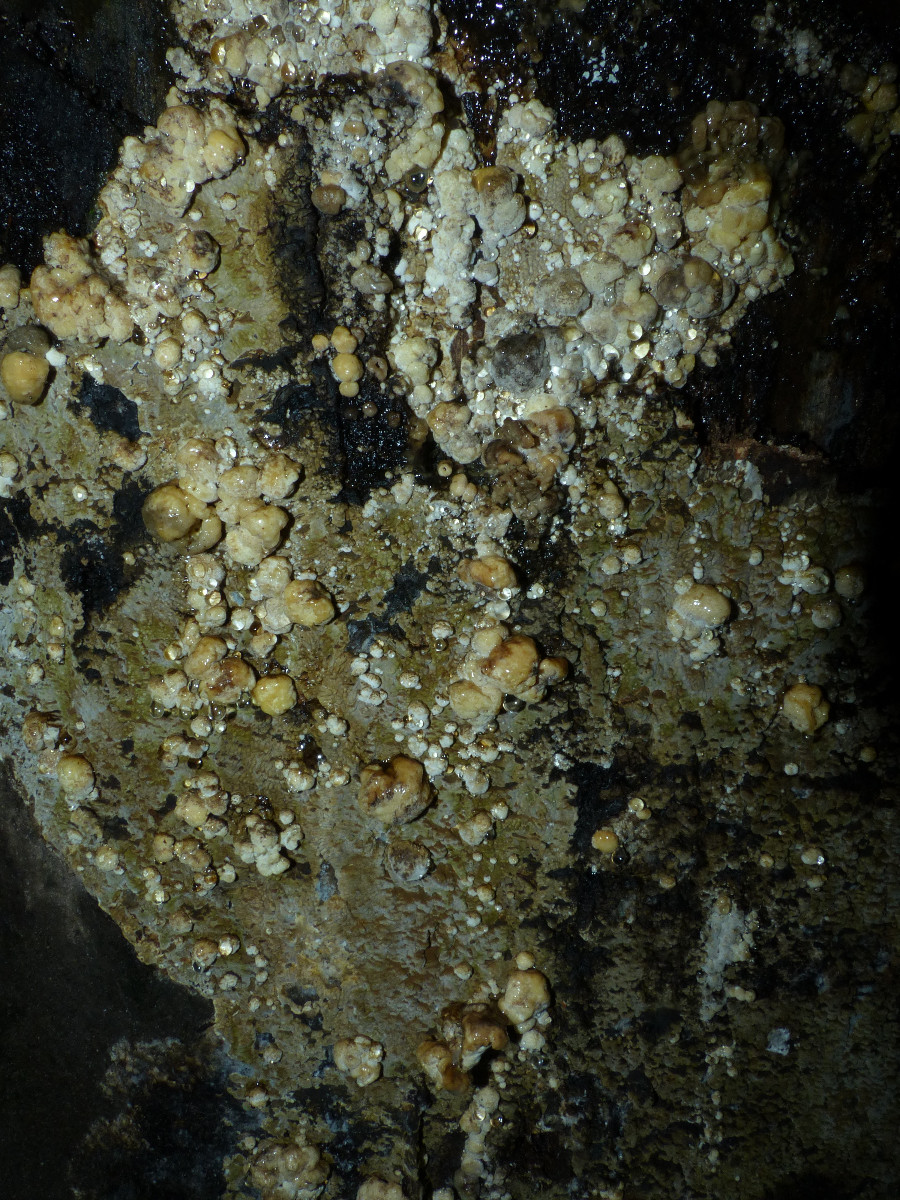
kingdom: Fungi
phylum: Ascomycota
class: Sordariomycetes
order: Xylariales
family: Hypoxylaceae
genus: Nodulisporium
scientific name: Nodulisporium cecidiogenes
